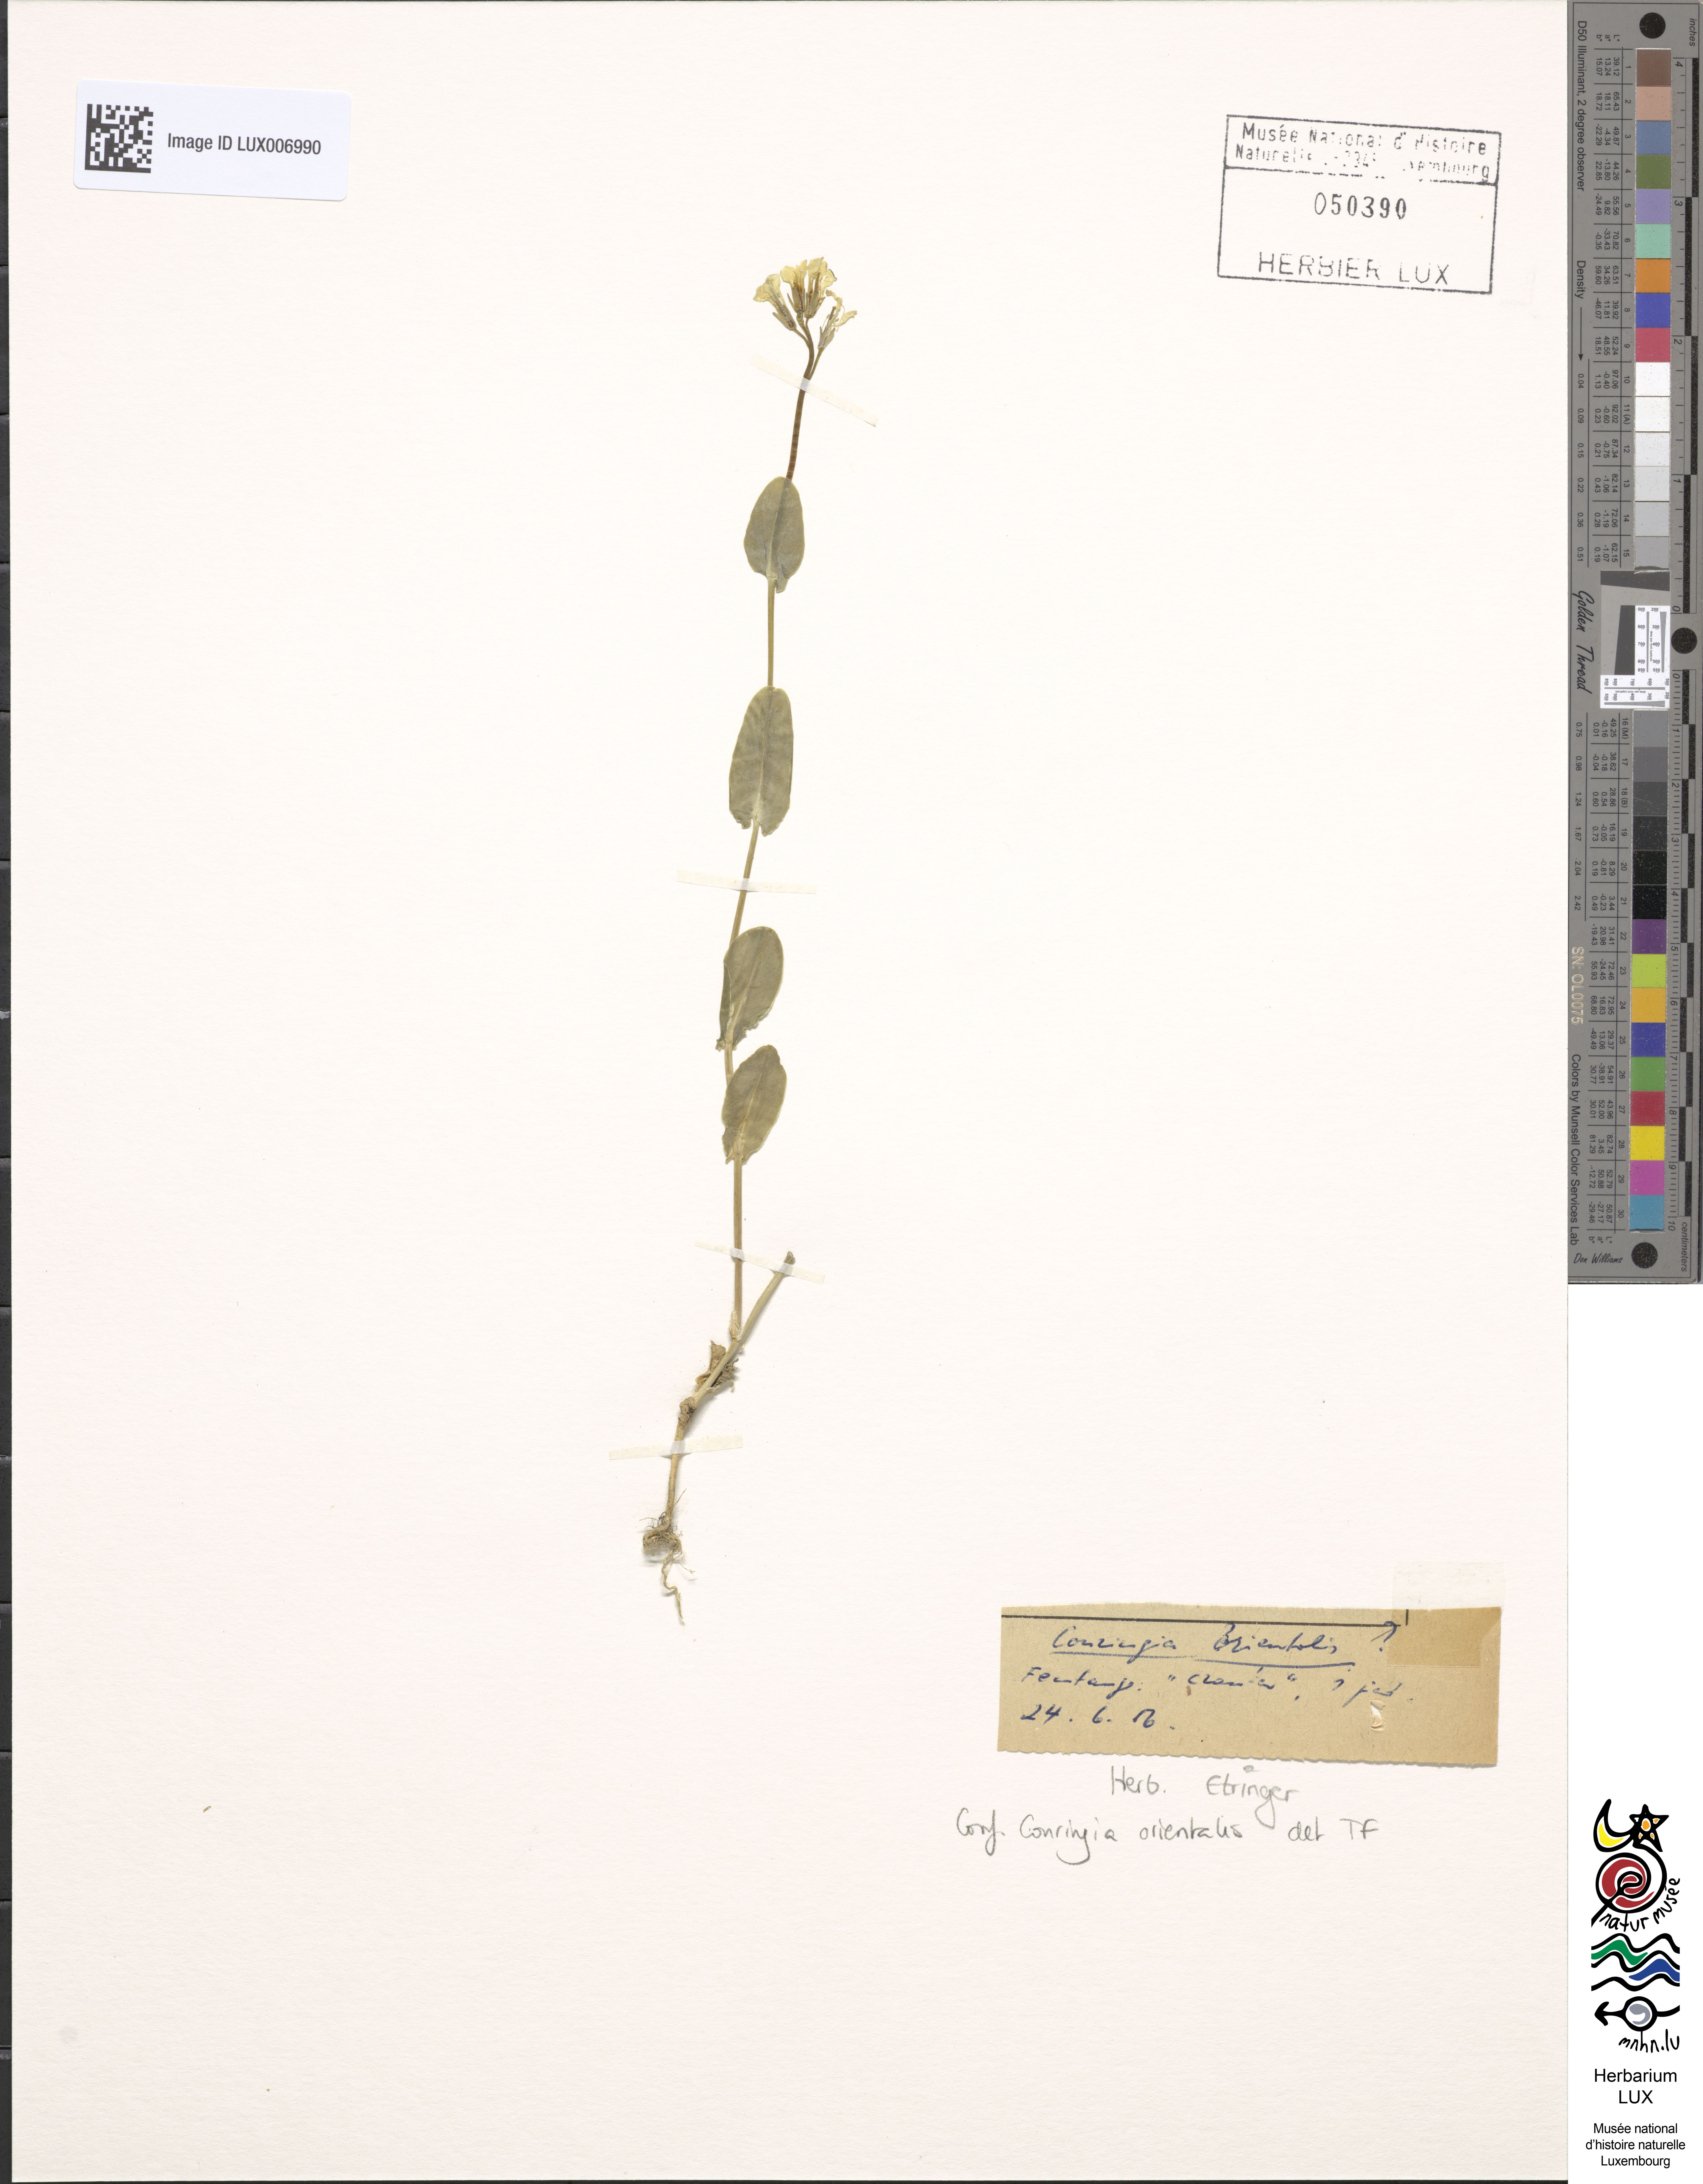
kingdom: Plantae
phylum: Tracheophyta
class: Magnoliopsida
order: Brassicales
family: Brassicaceae
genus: Conringia
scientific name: Conringia orientalis
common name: Hare's ear mustard
